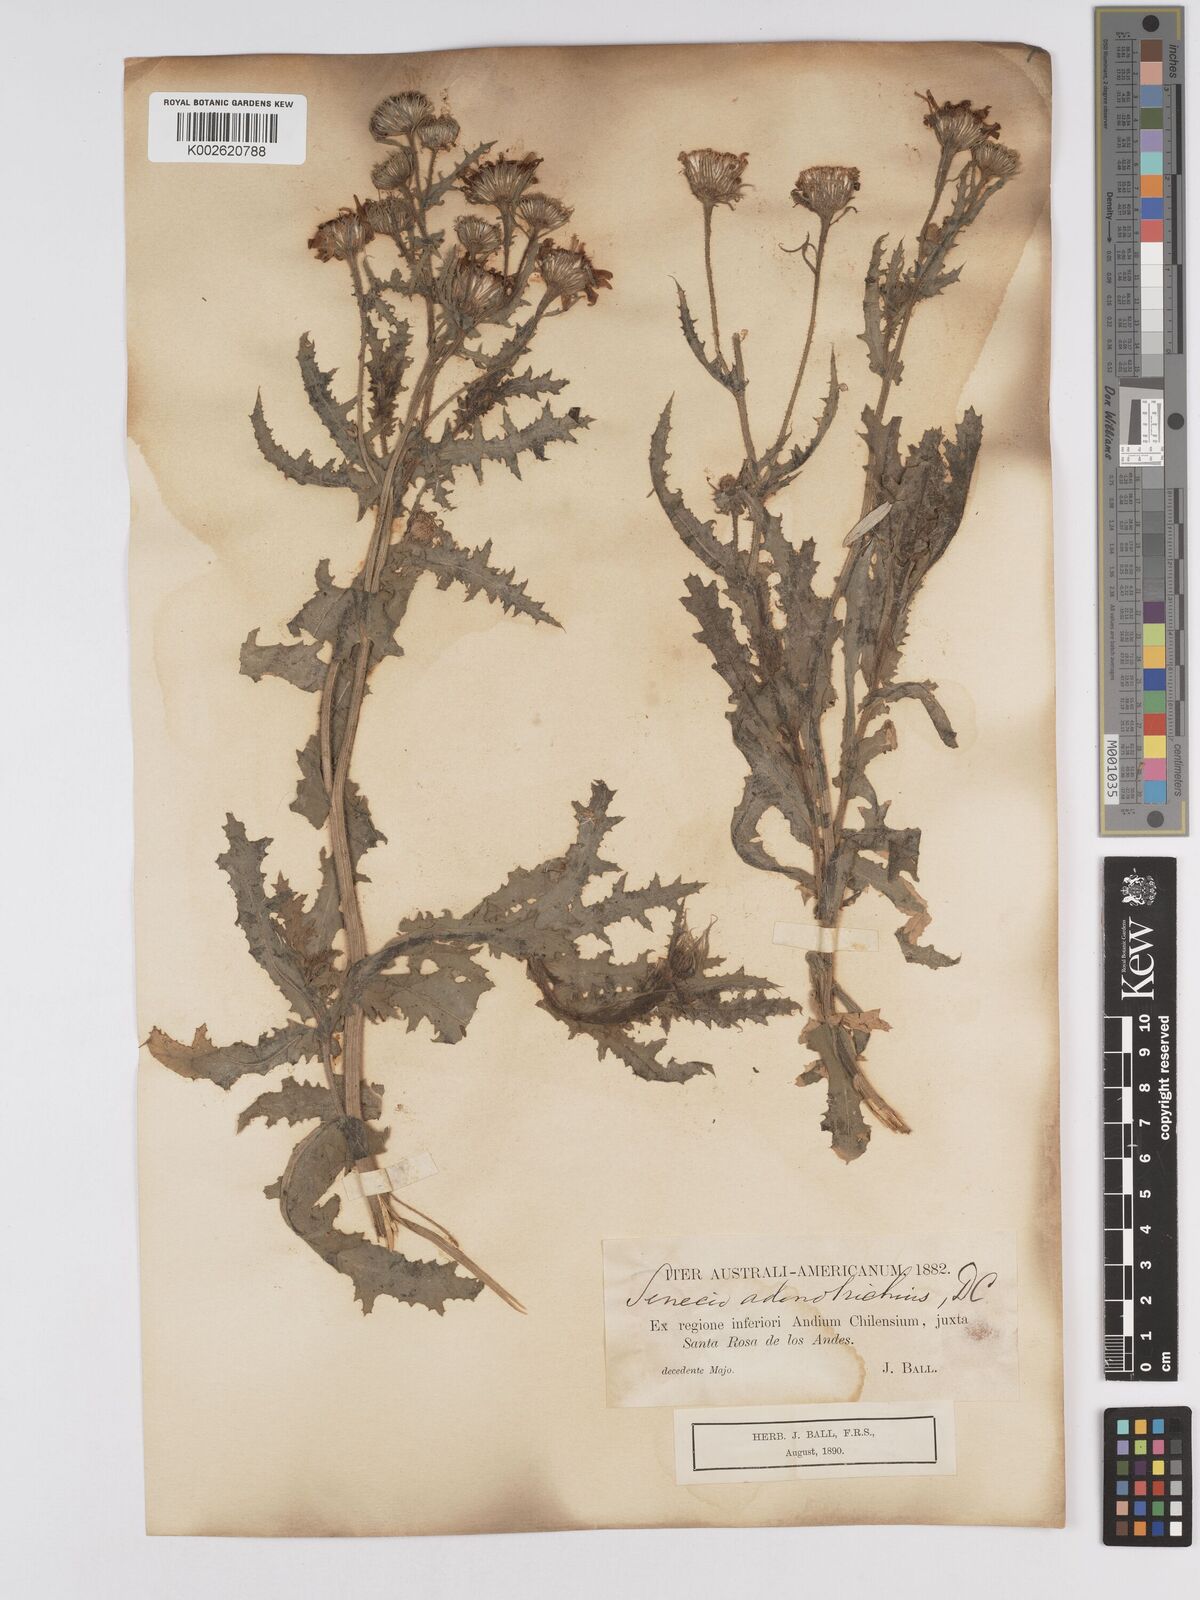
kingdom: Plantae
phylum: Tracheophyta
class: Magnoliopsida
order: Asterales
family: Asteraceae
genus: Senecio
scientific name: Senecio adenotrichius
